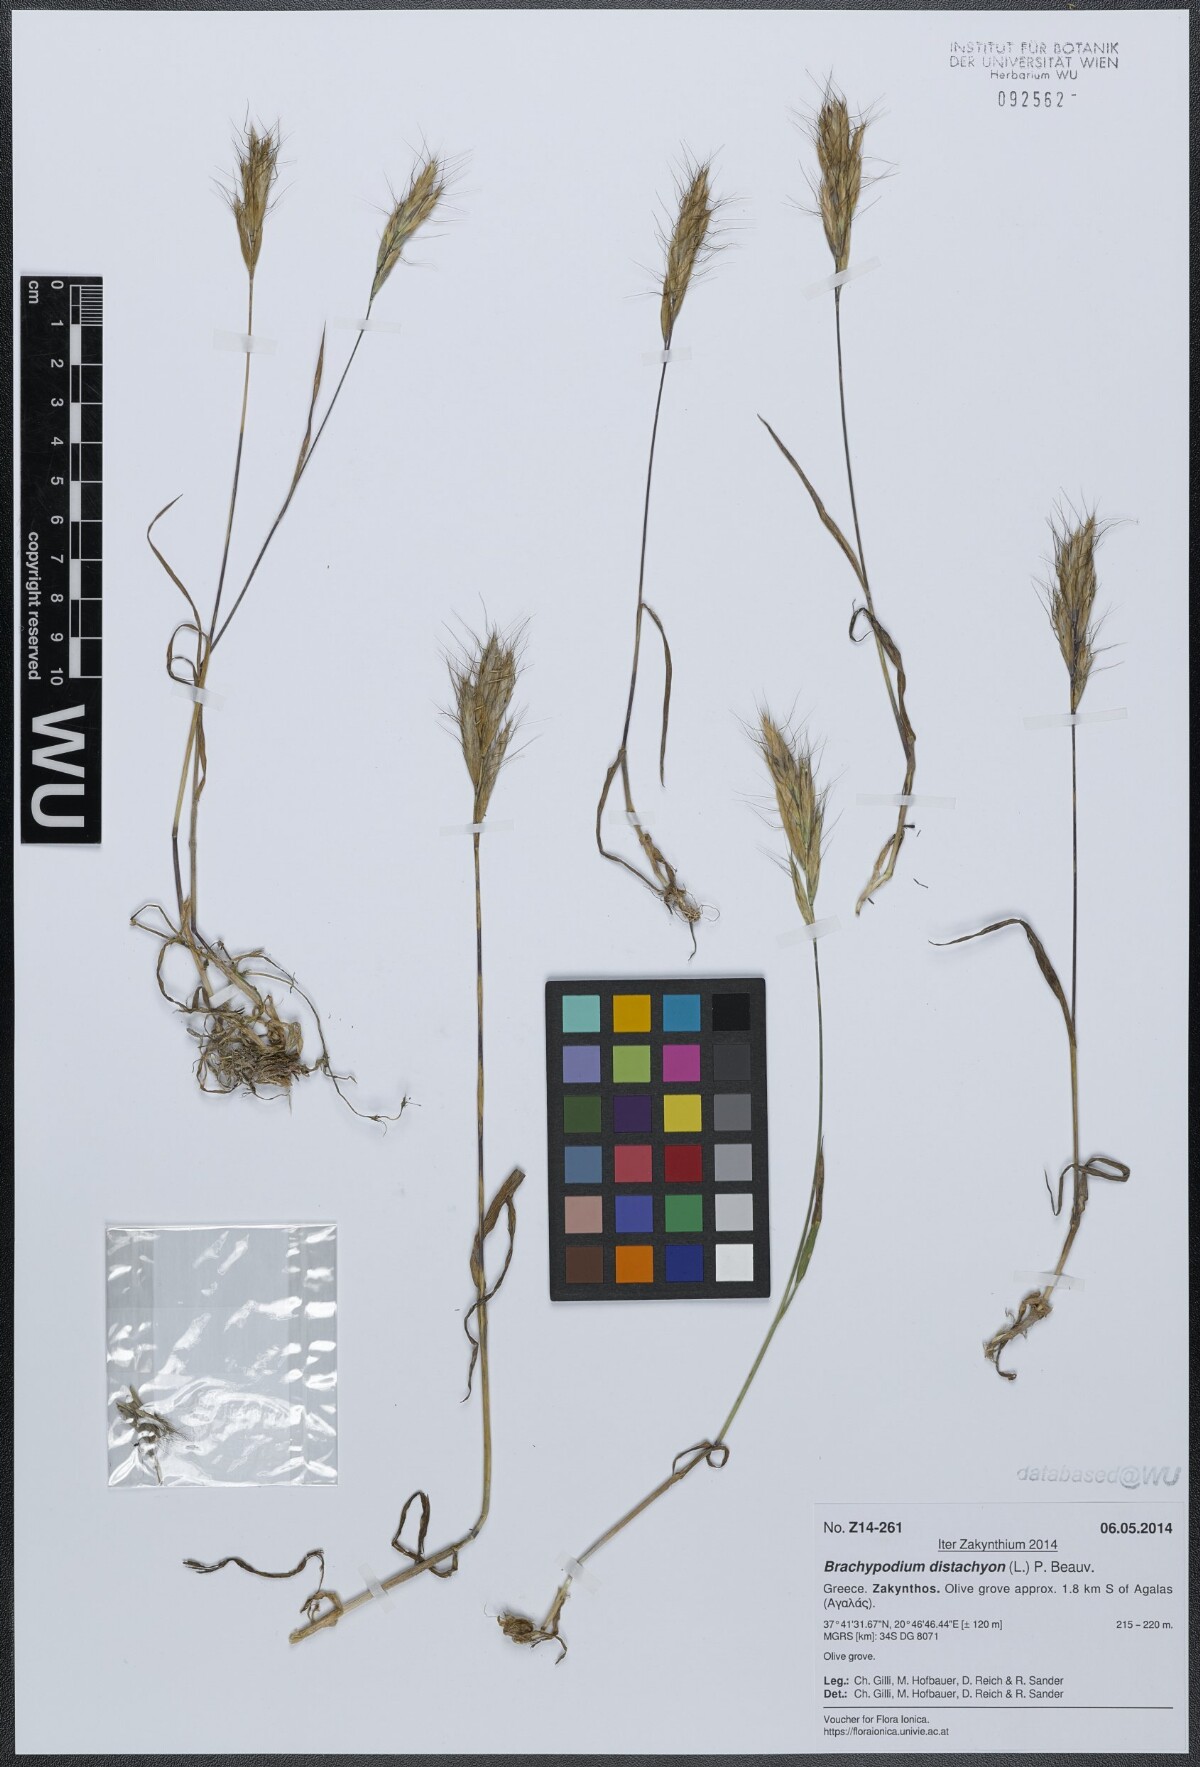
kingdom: Plantae
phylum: Tracheophyta
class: Liliopsida
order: Poales
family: Poaceae
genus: Brachypodium
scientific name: Brachypodium distachyon
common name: Stiff brome
